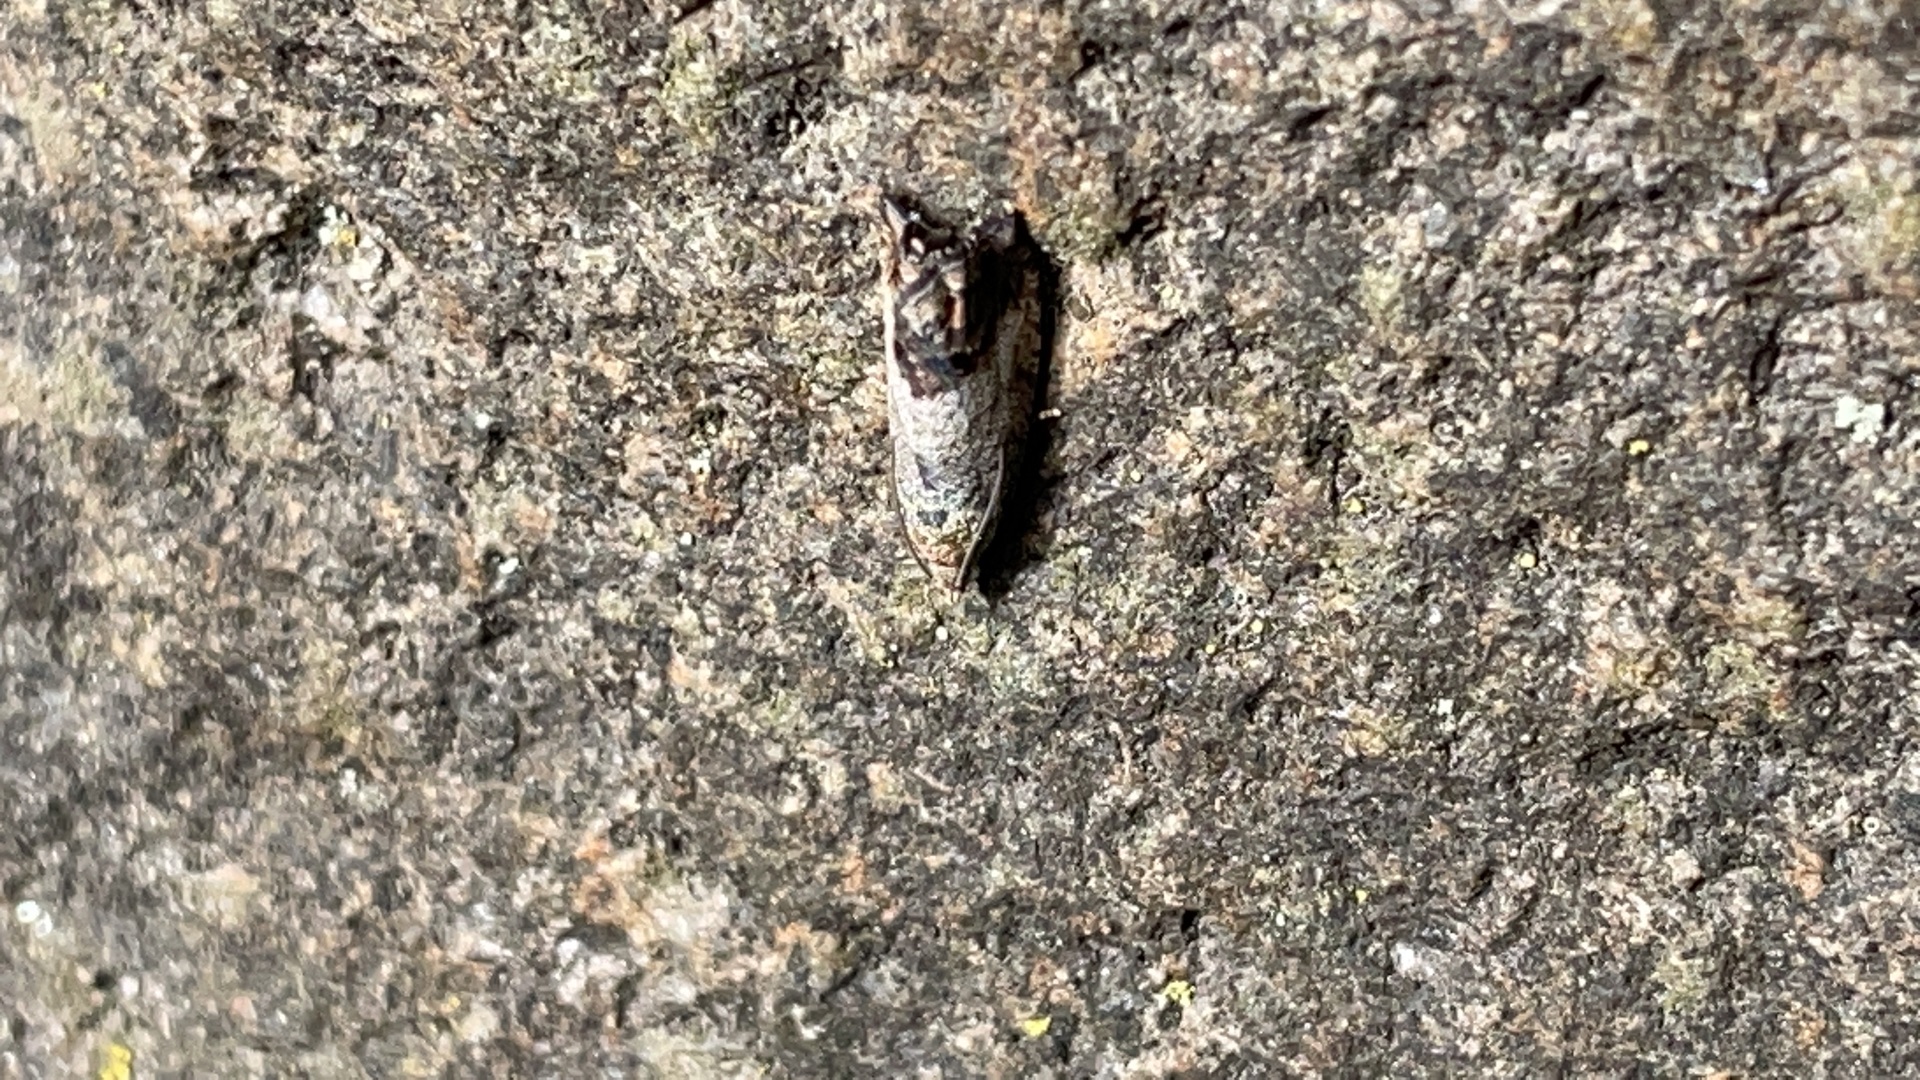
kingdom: Animalia
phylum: Arthropoda
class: Insecta
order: Lepidoptera
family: Tortricidae
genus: Cydia
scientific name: Cydia splendana
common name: Agernvikler
